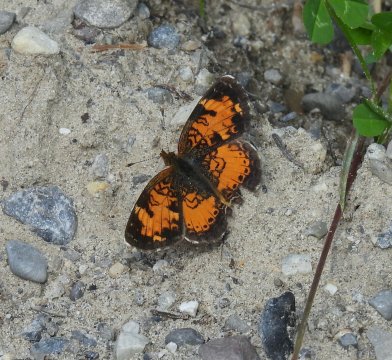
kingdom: Animalia
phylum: Arthropoda
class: Insecta
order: Lepidoptera
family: Nymphalidae
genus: Phyciodes
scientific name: Phyciodes tharos
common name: Northern Crescent
